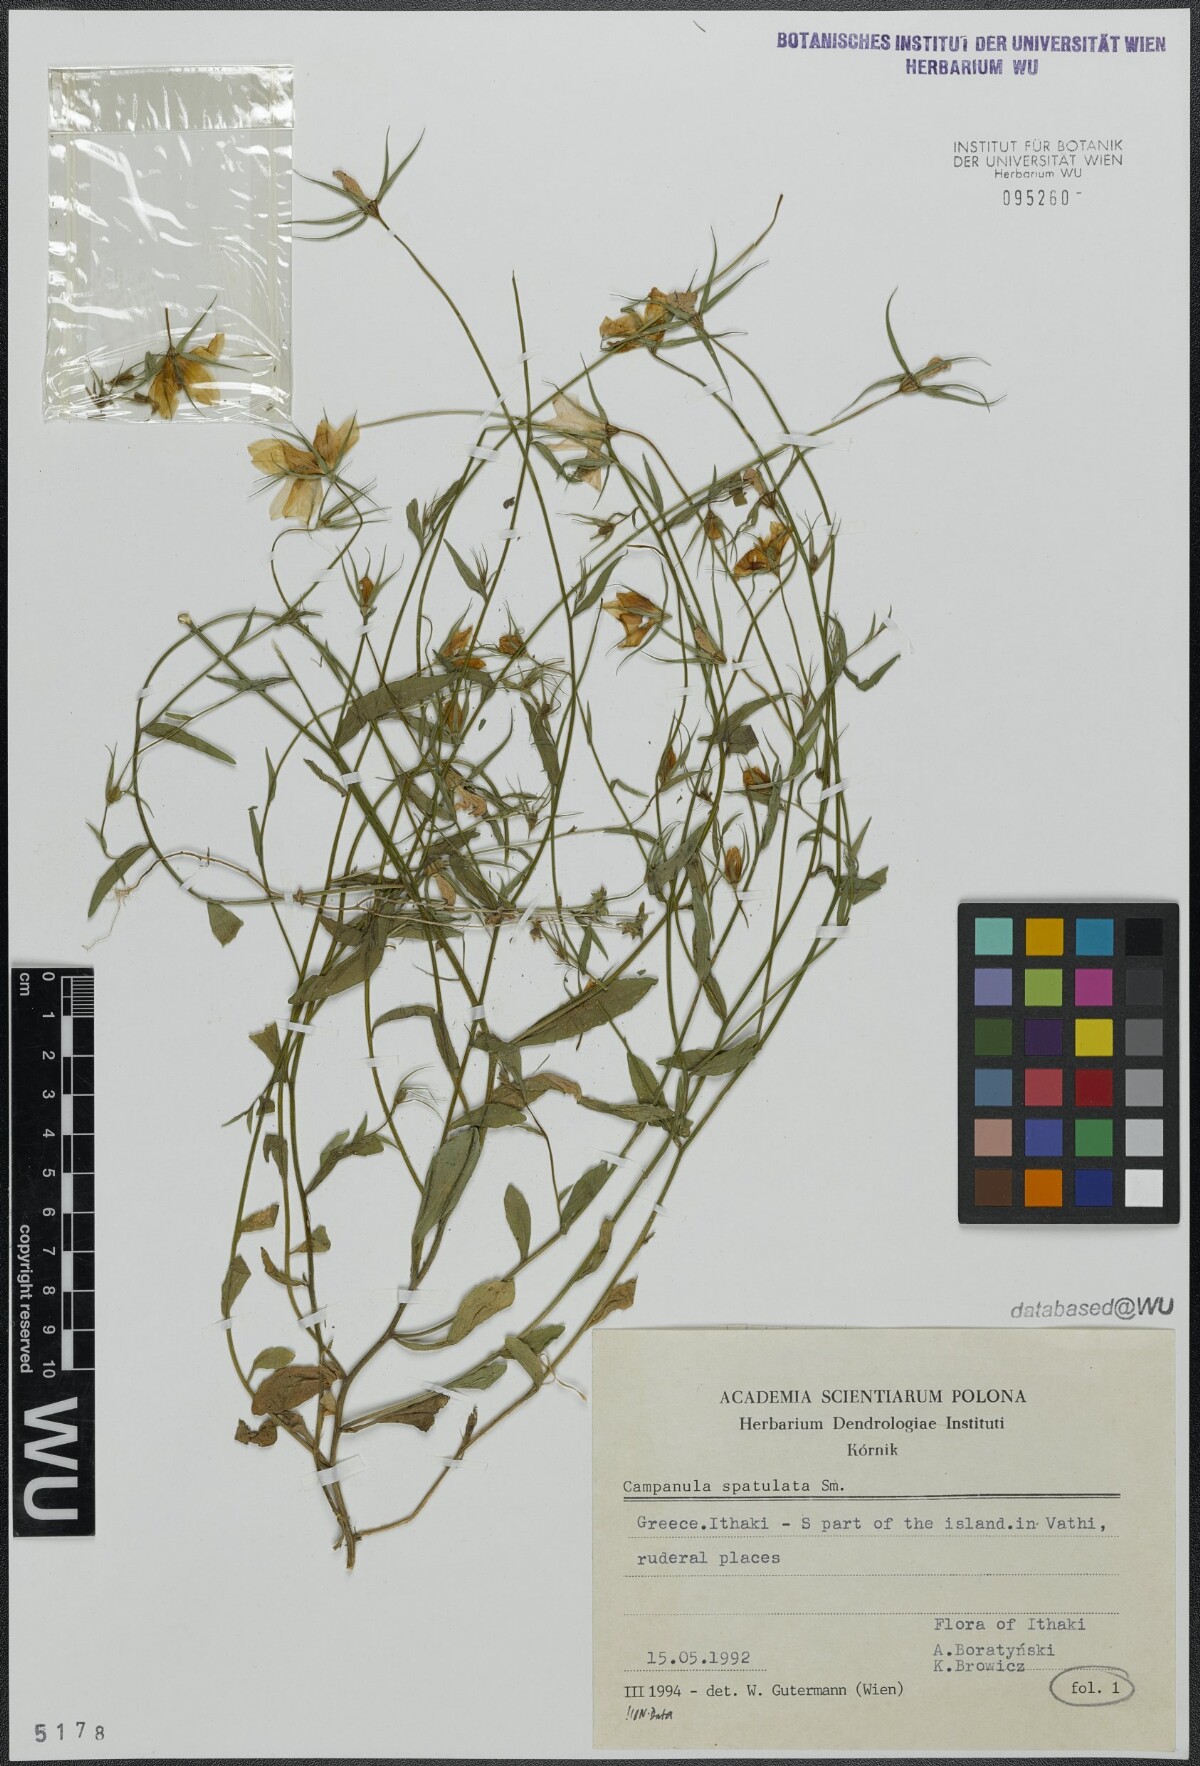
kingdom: Plantae
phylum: Tracheophyta
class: Magnoliopsida
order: Asterales
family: Campanulaceae
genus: Campanula
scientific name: Campanula spatulata
